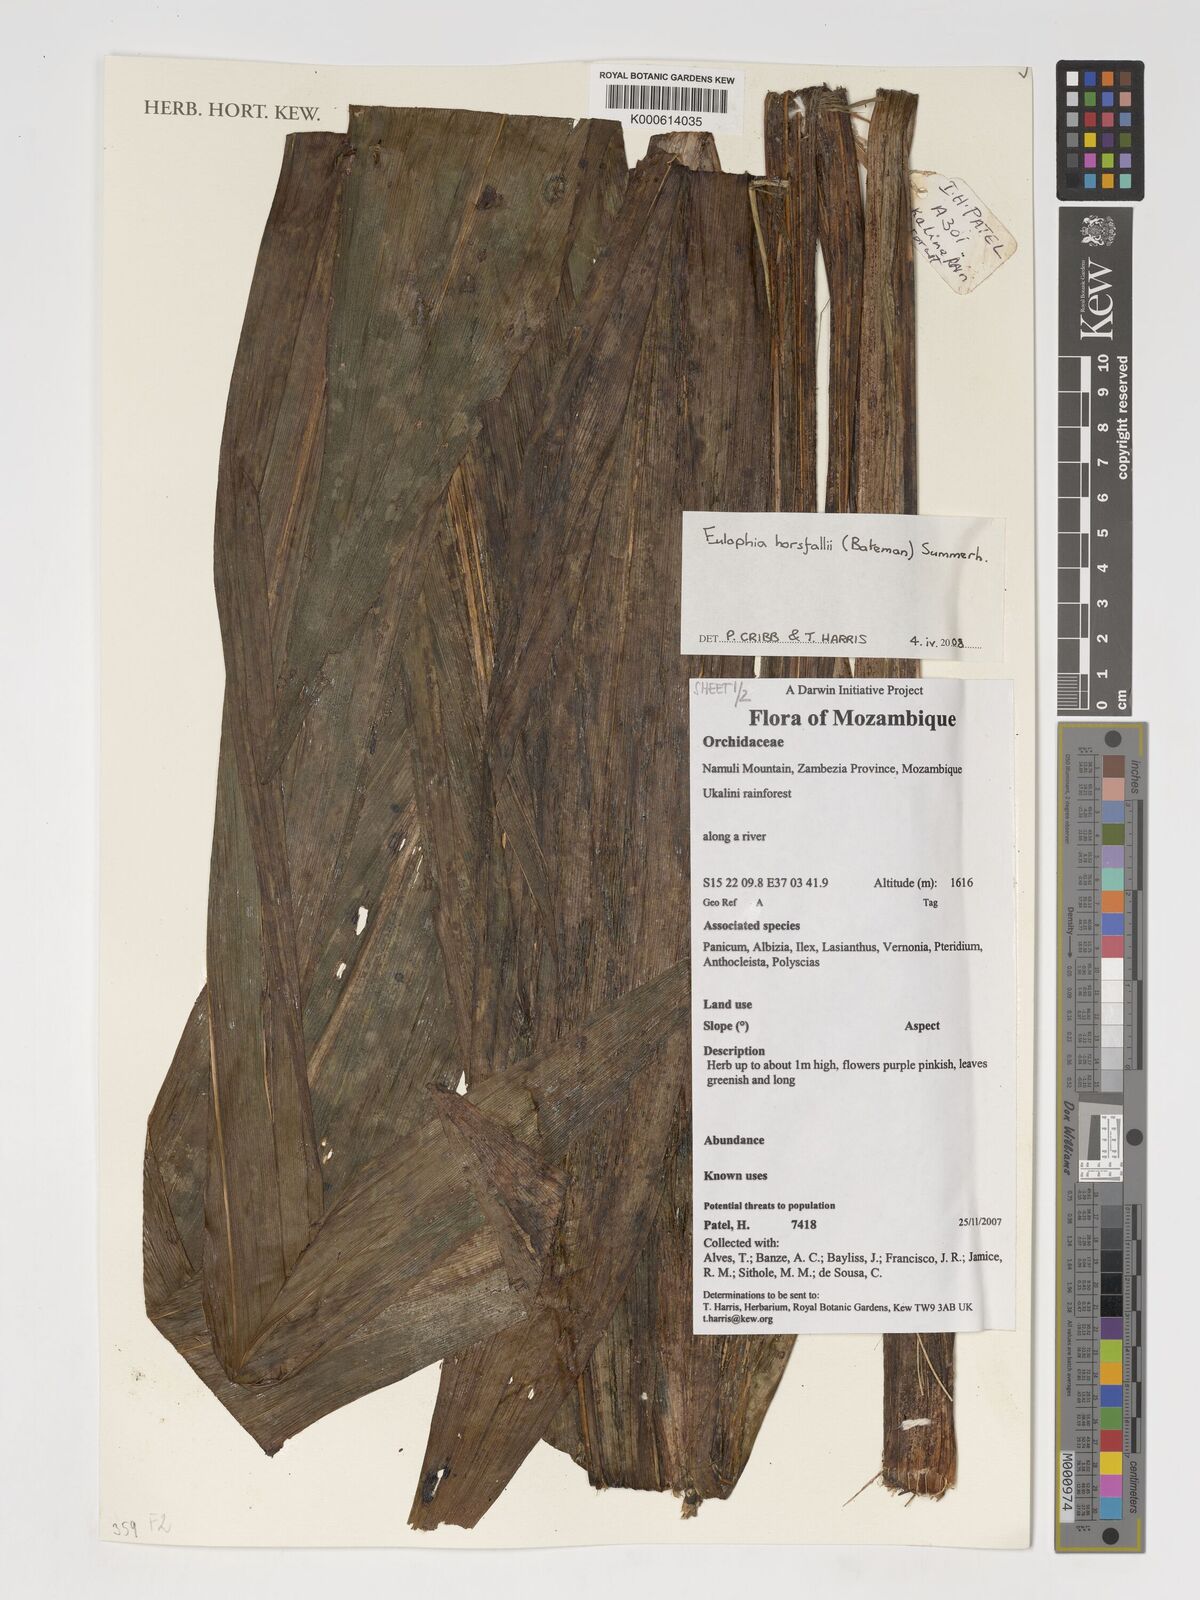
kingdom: Plantae
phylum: Tracheophyta
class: Liliopsida
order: Asparagales
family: Orchidaceae
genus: Eulophia
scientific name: Eulophia horsfallii
